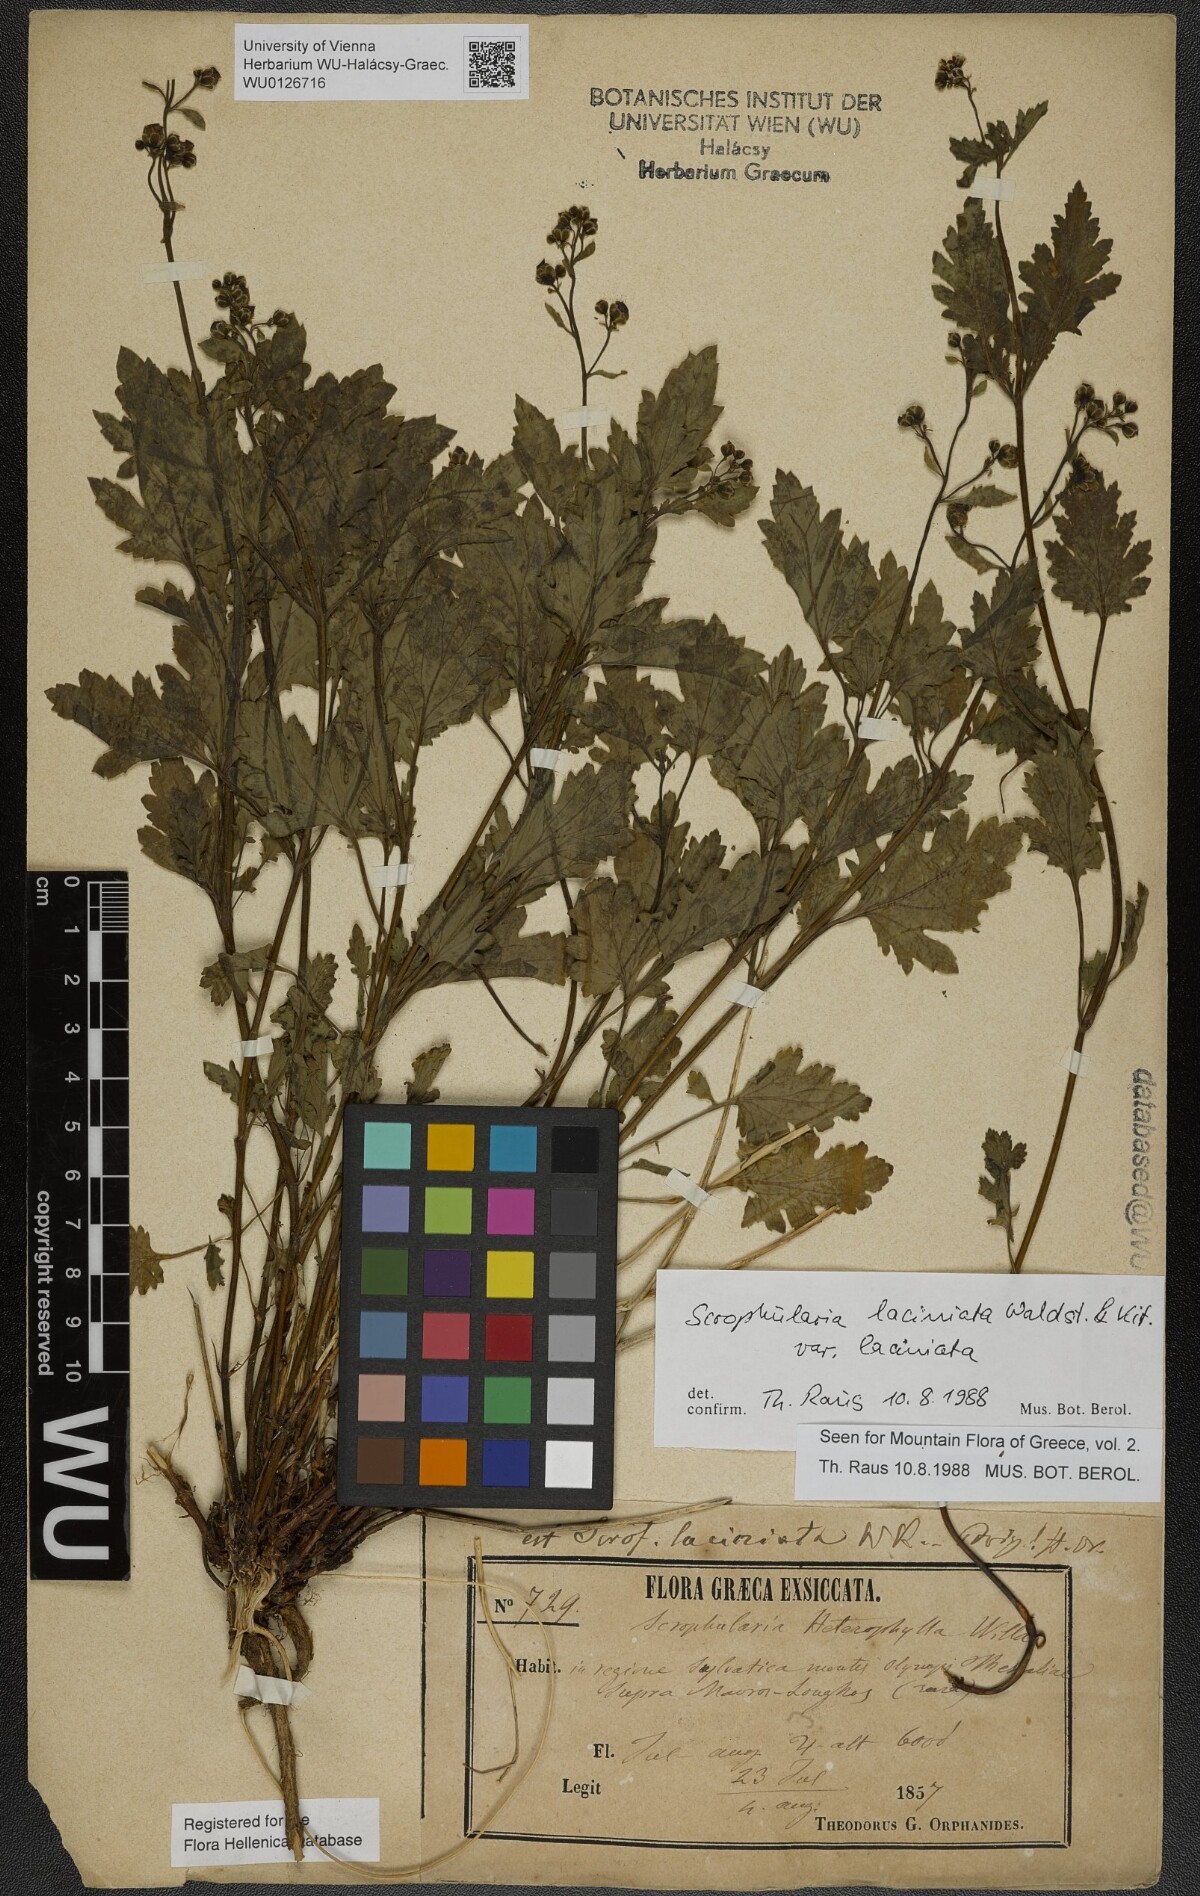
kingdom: Plantae
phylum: Tracheophyta
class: Magnoliopsida
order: Lamiales
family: Scrophulariaceae
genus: Scrophularia
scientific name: Scrophularia laciniata
